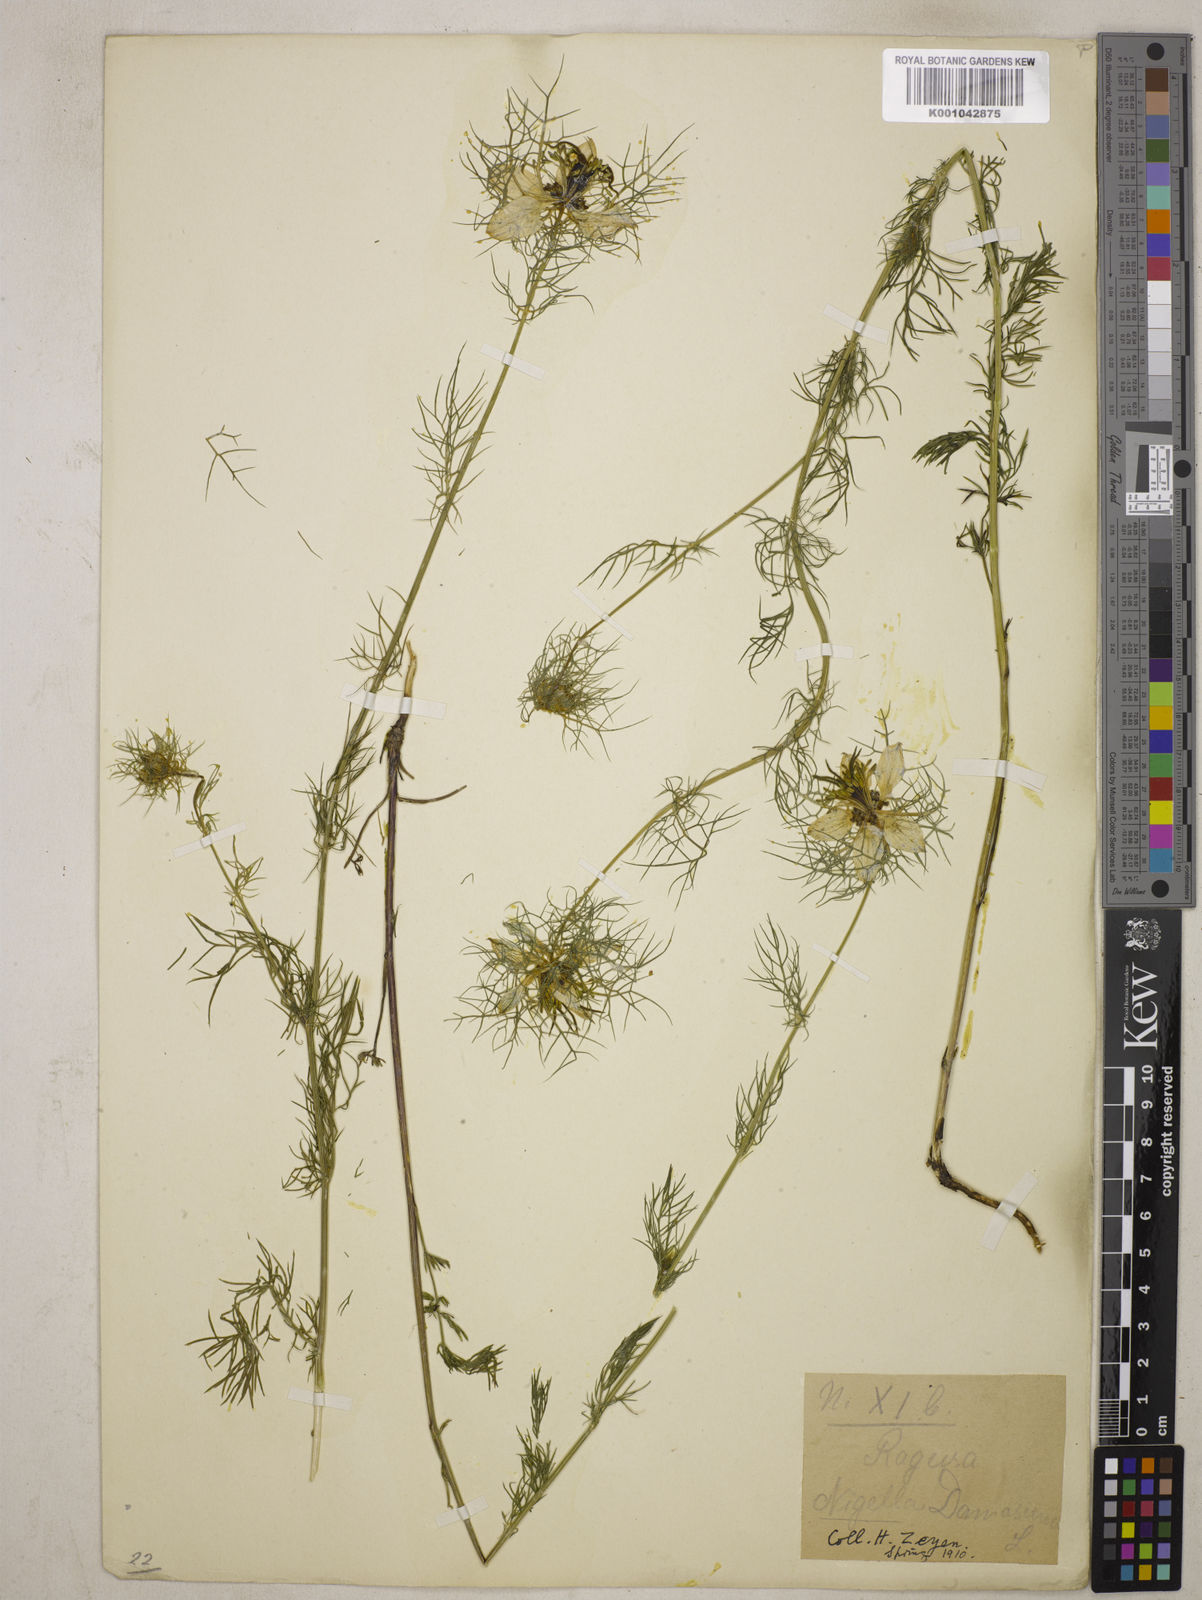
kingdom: Plantae
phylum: Tracheophyta
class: Magnoliopsida
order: Ranunculales
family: Ranunculaceae
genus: Nigella
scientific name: Nigella damascena
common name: Love-in-a-mist
